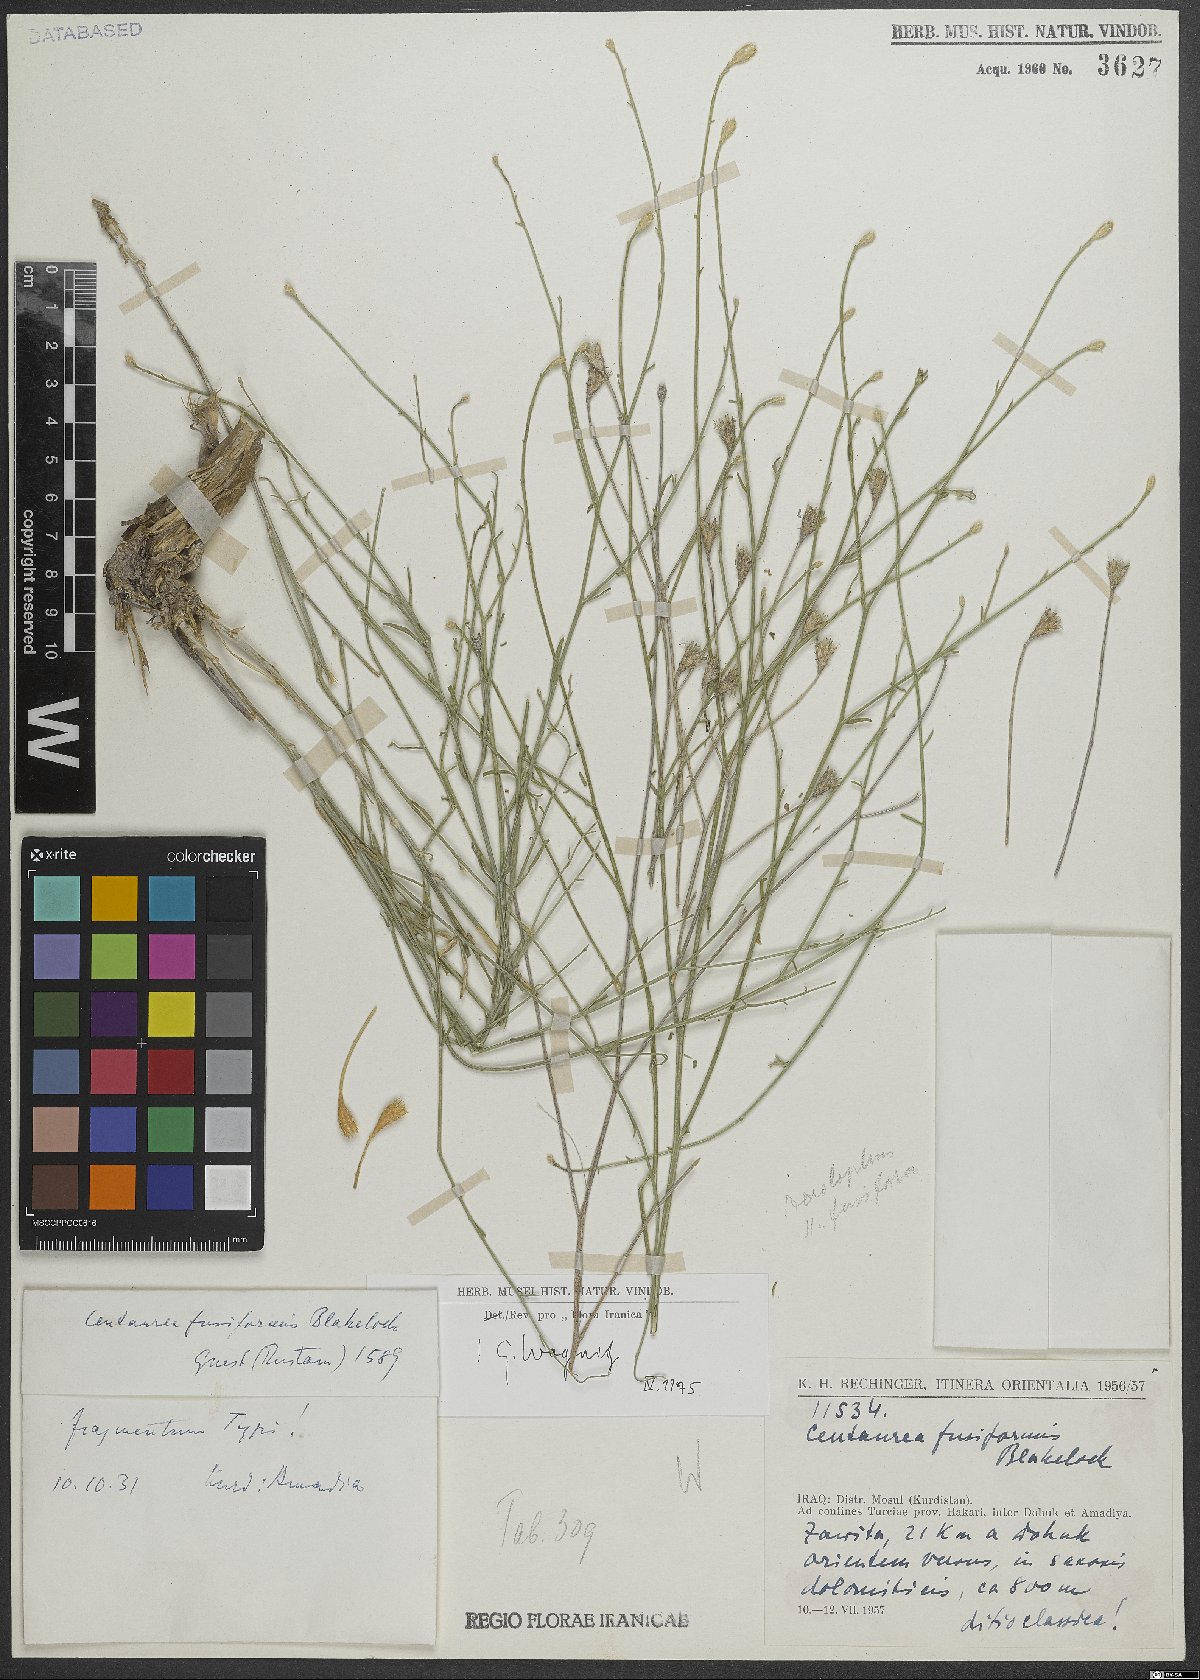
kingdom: Plantae
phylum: Tracheophyta
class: Magnoliopsida
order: Asterales
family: Asteraceae
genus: Centaurea
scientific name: Centaurea fusiformis
